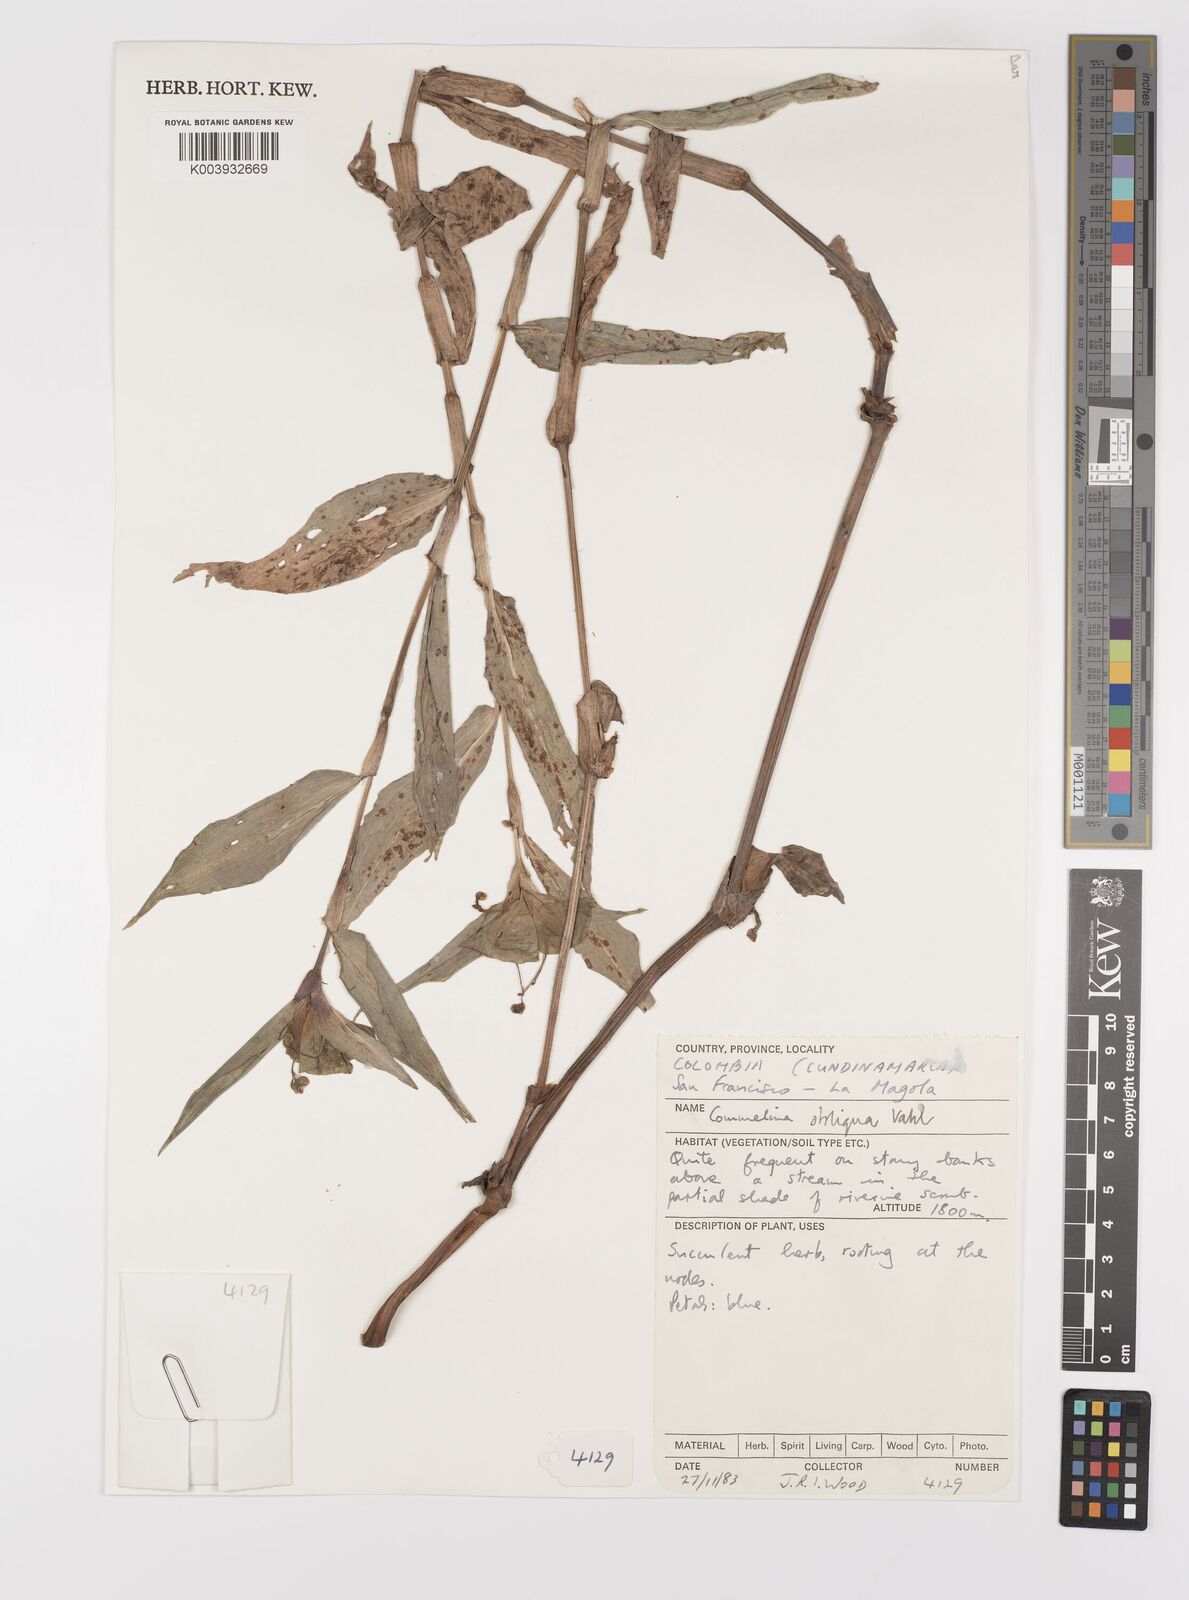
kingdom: Plantae
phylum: Tracheophyta
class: Liliopsida
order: Commelinales
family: Commelinaceae
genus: Commelina
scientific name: Commelina obliqua
